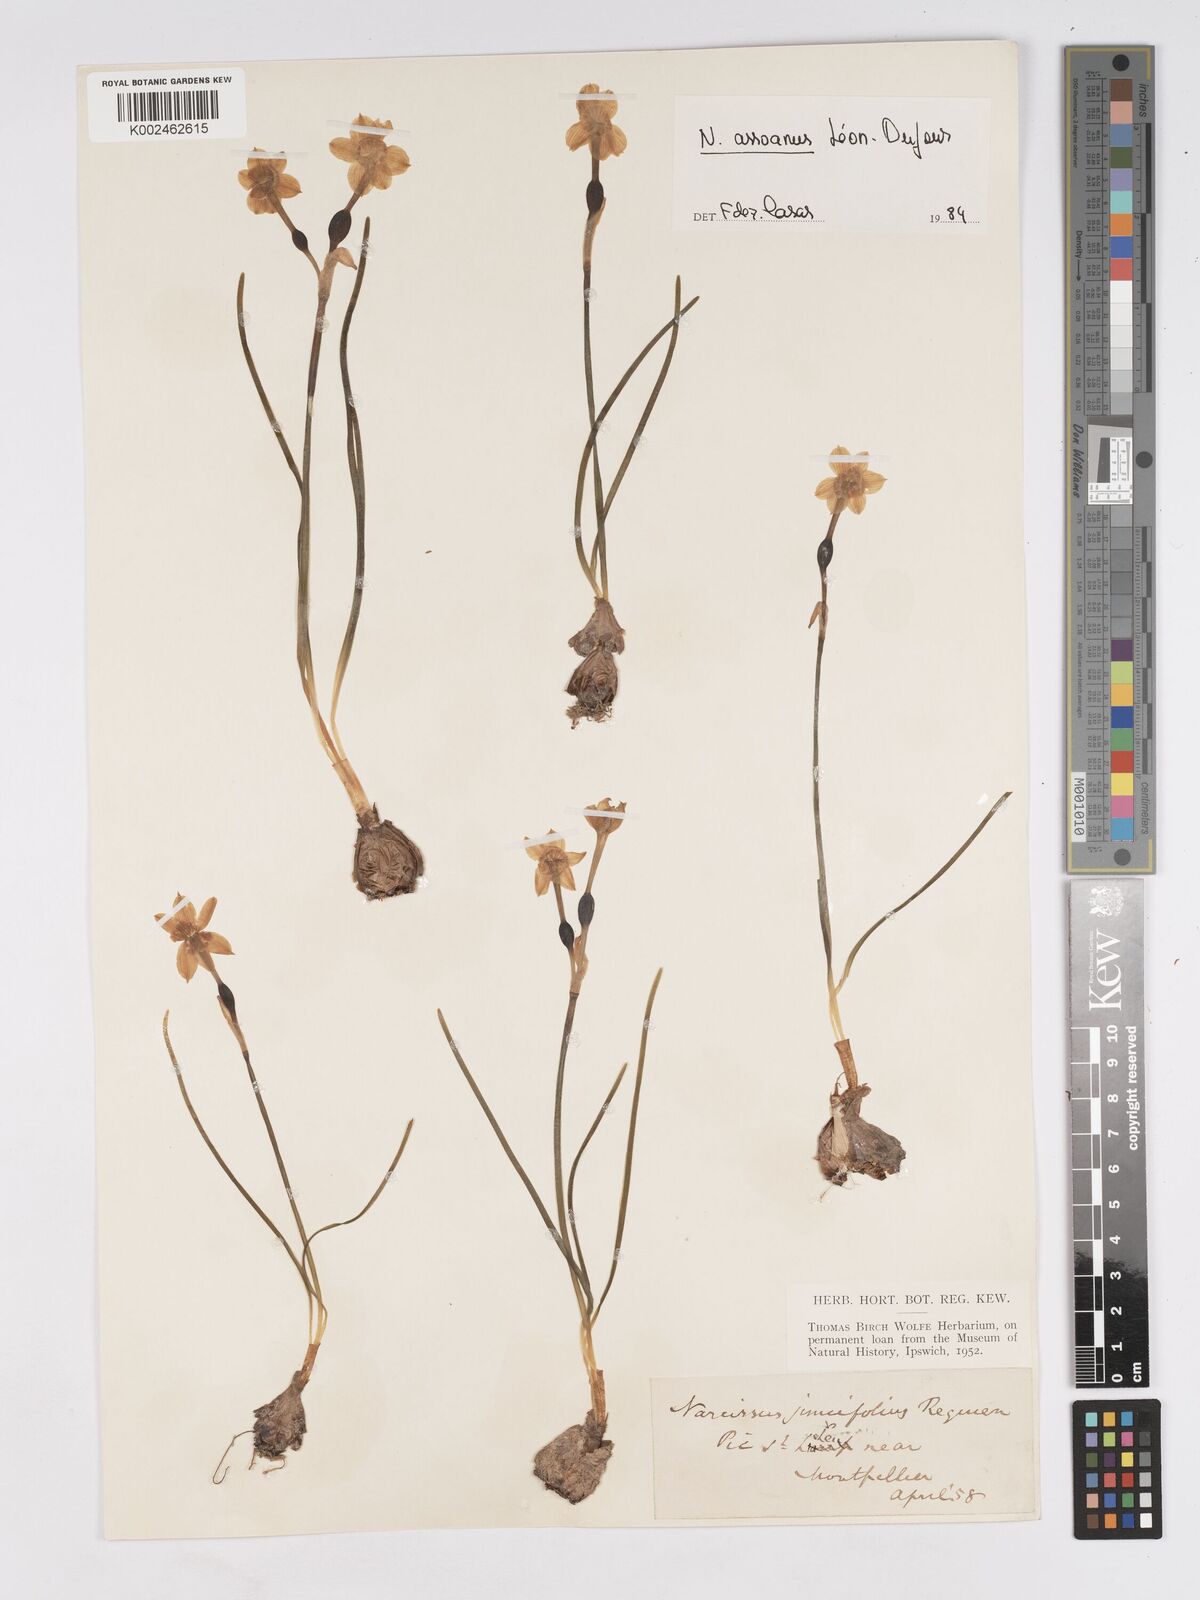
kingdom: Plantae
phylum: Tracheophyta
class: Liliopsida
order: Asparagales
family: Amaryllidaceae
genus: Narcissus
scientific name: Narcissus assoanus
